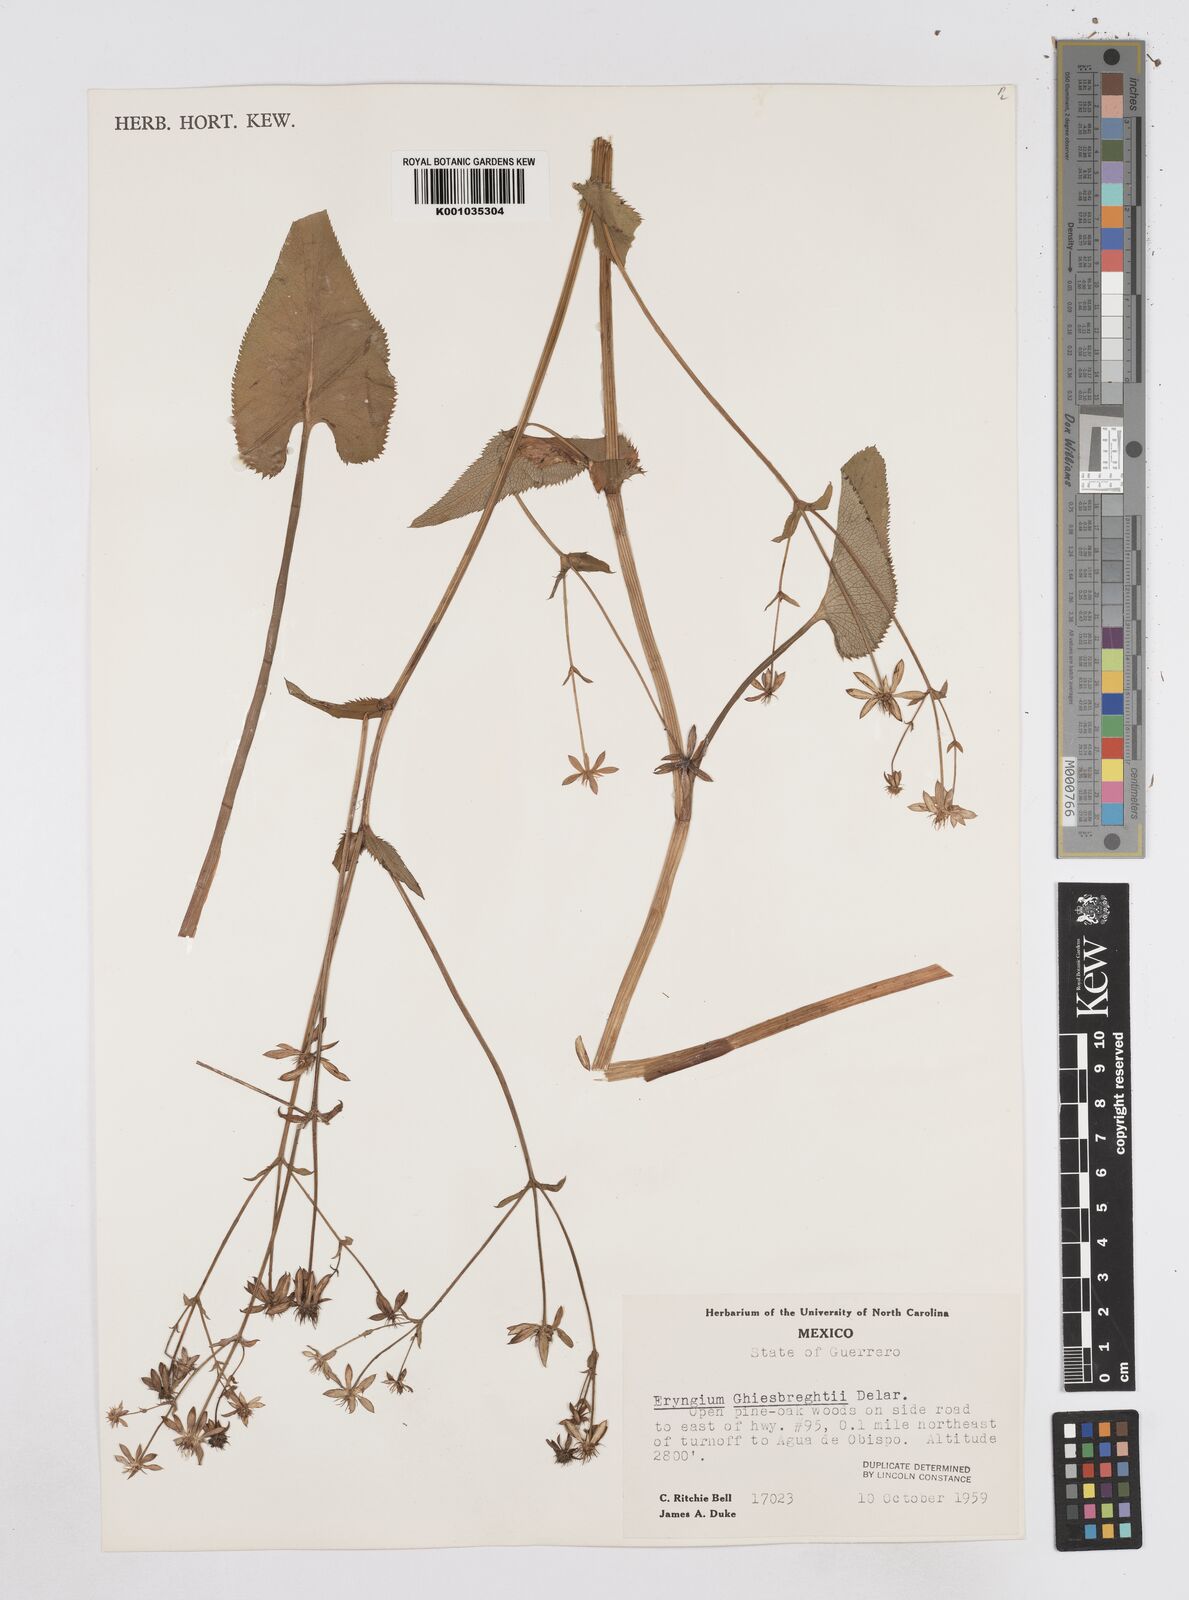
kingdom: Plantae
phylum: Tracheophyta
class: Magnoliopsida
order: Apiales
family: Apiaceae
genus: Eryngium
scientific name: Eryngium ghiesbreghtii
